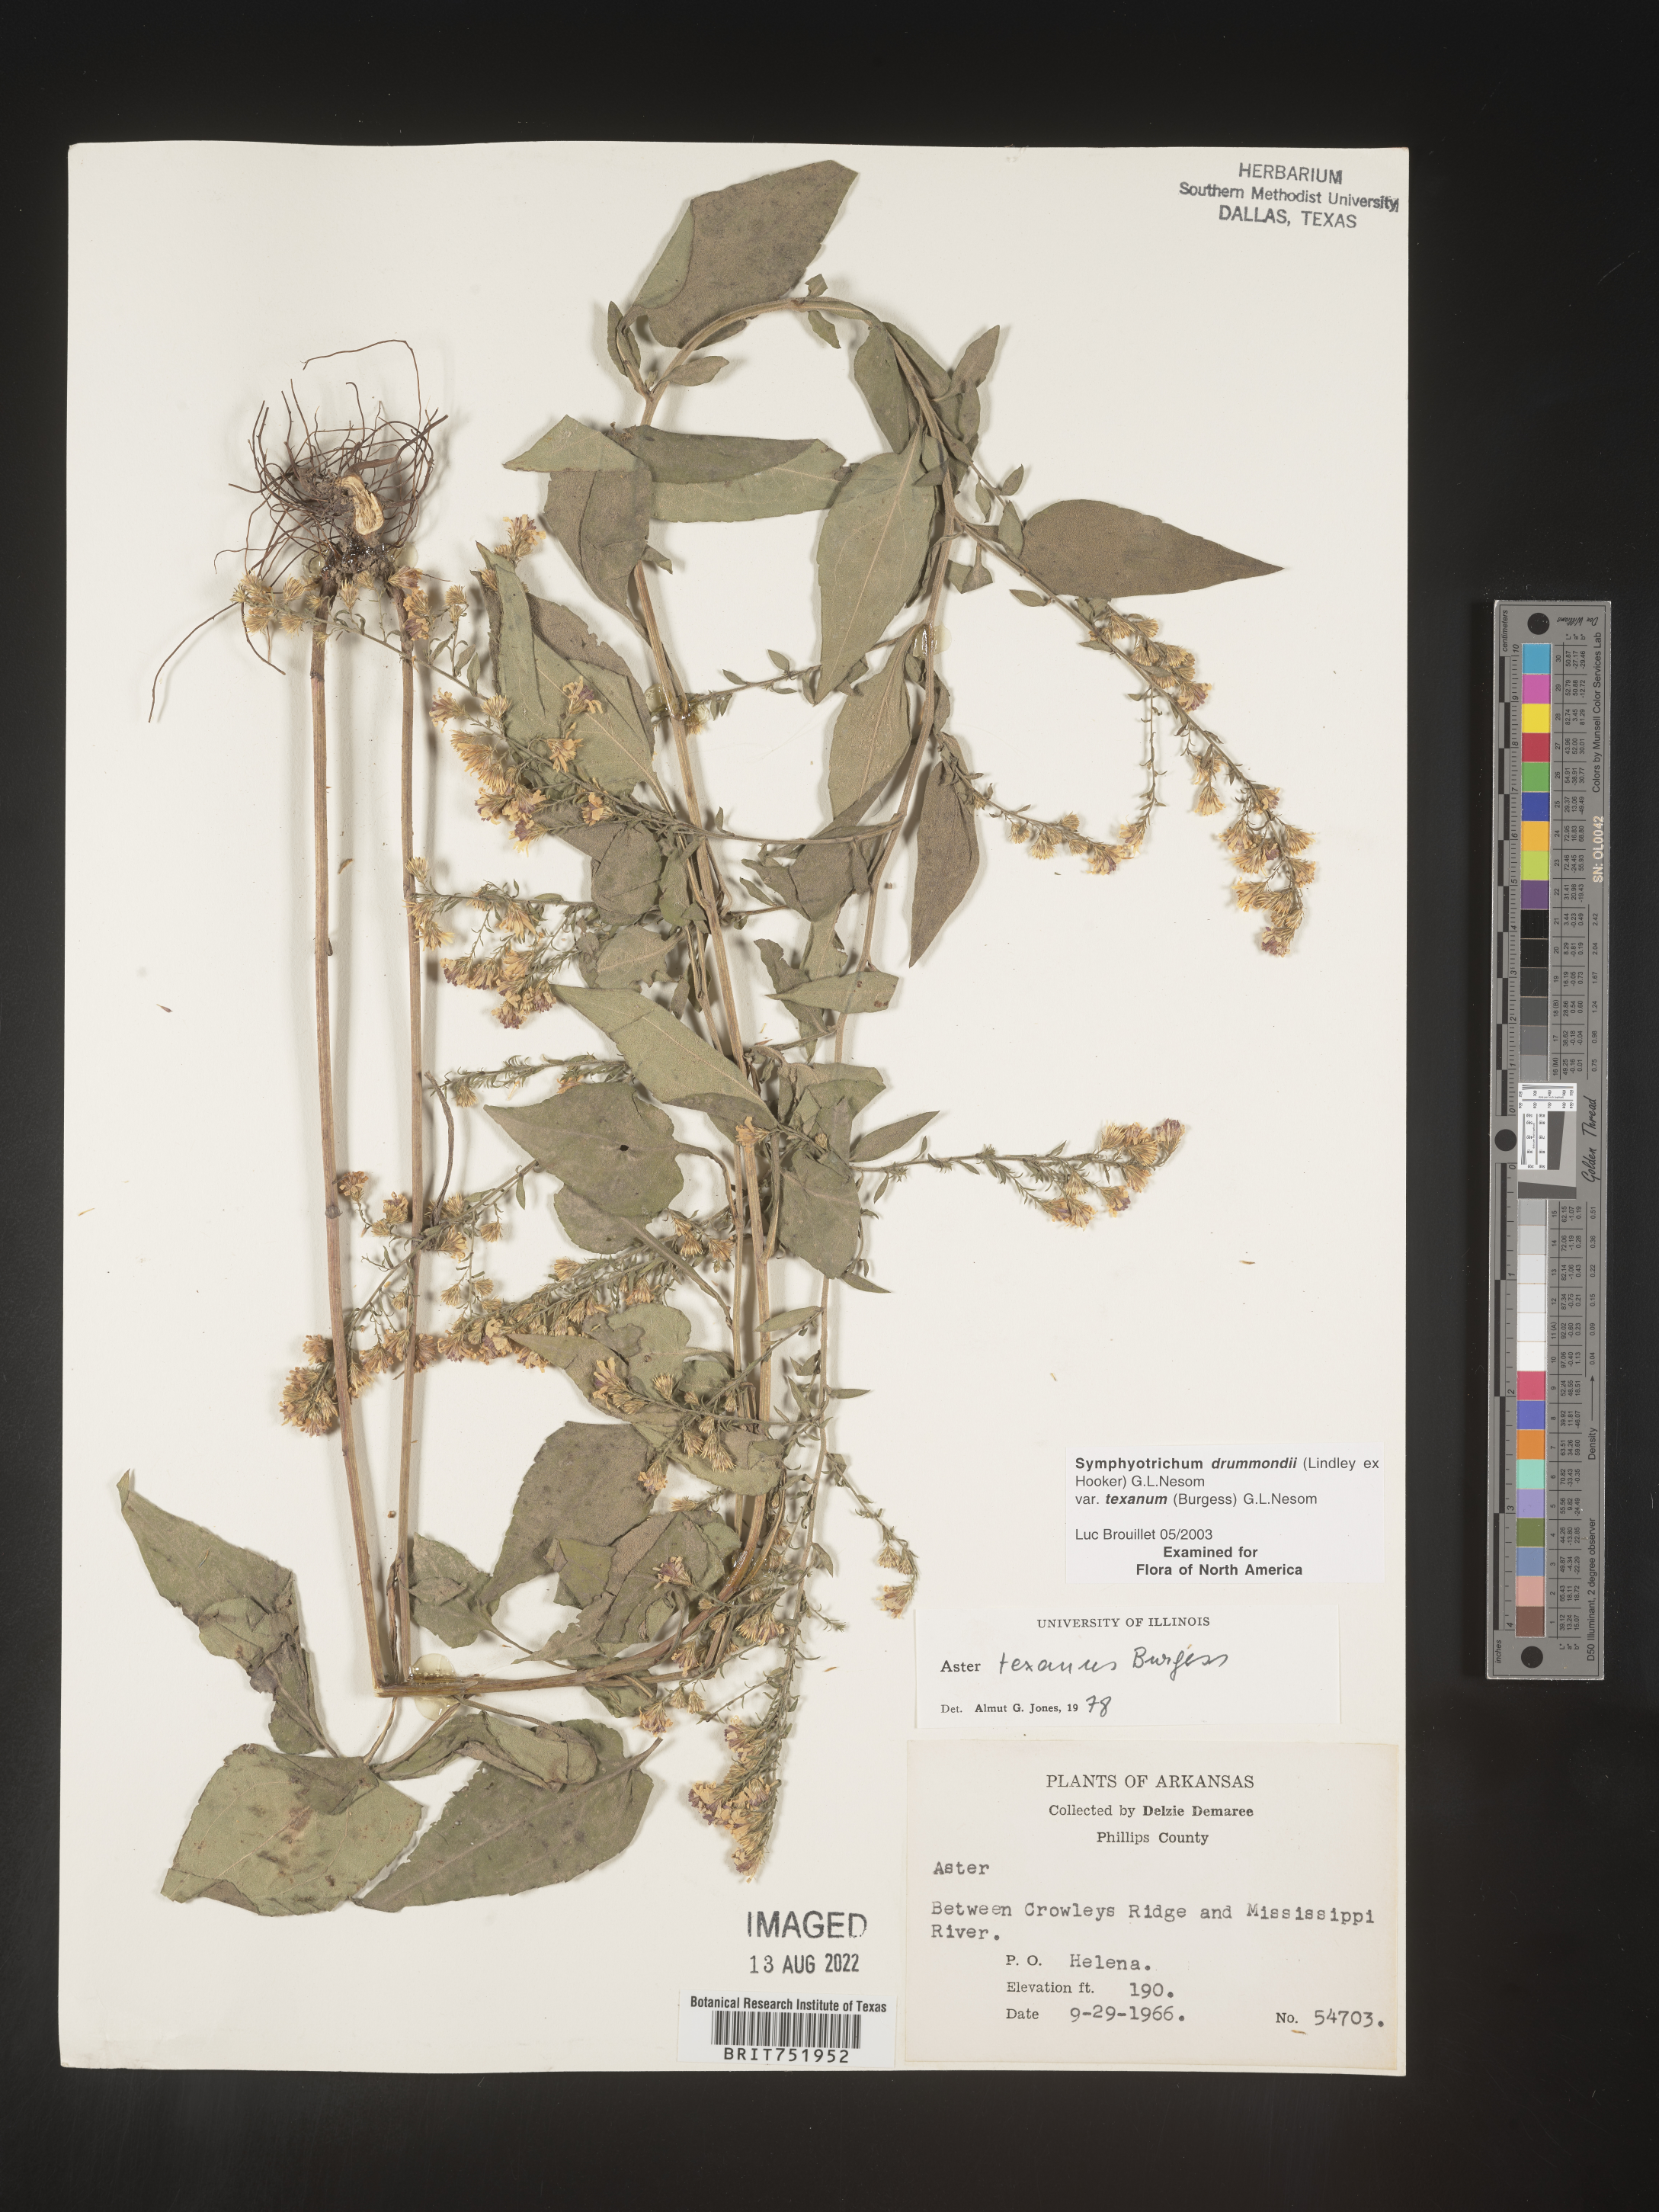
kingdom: Plantae
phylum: Tracheophyta
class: Magnoliopsida
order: Asterales
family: Asteraceae
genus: Symphyotrichum
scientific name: Symphyotrichum drummondii
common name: Drummond's aster
